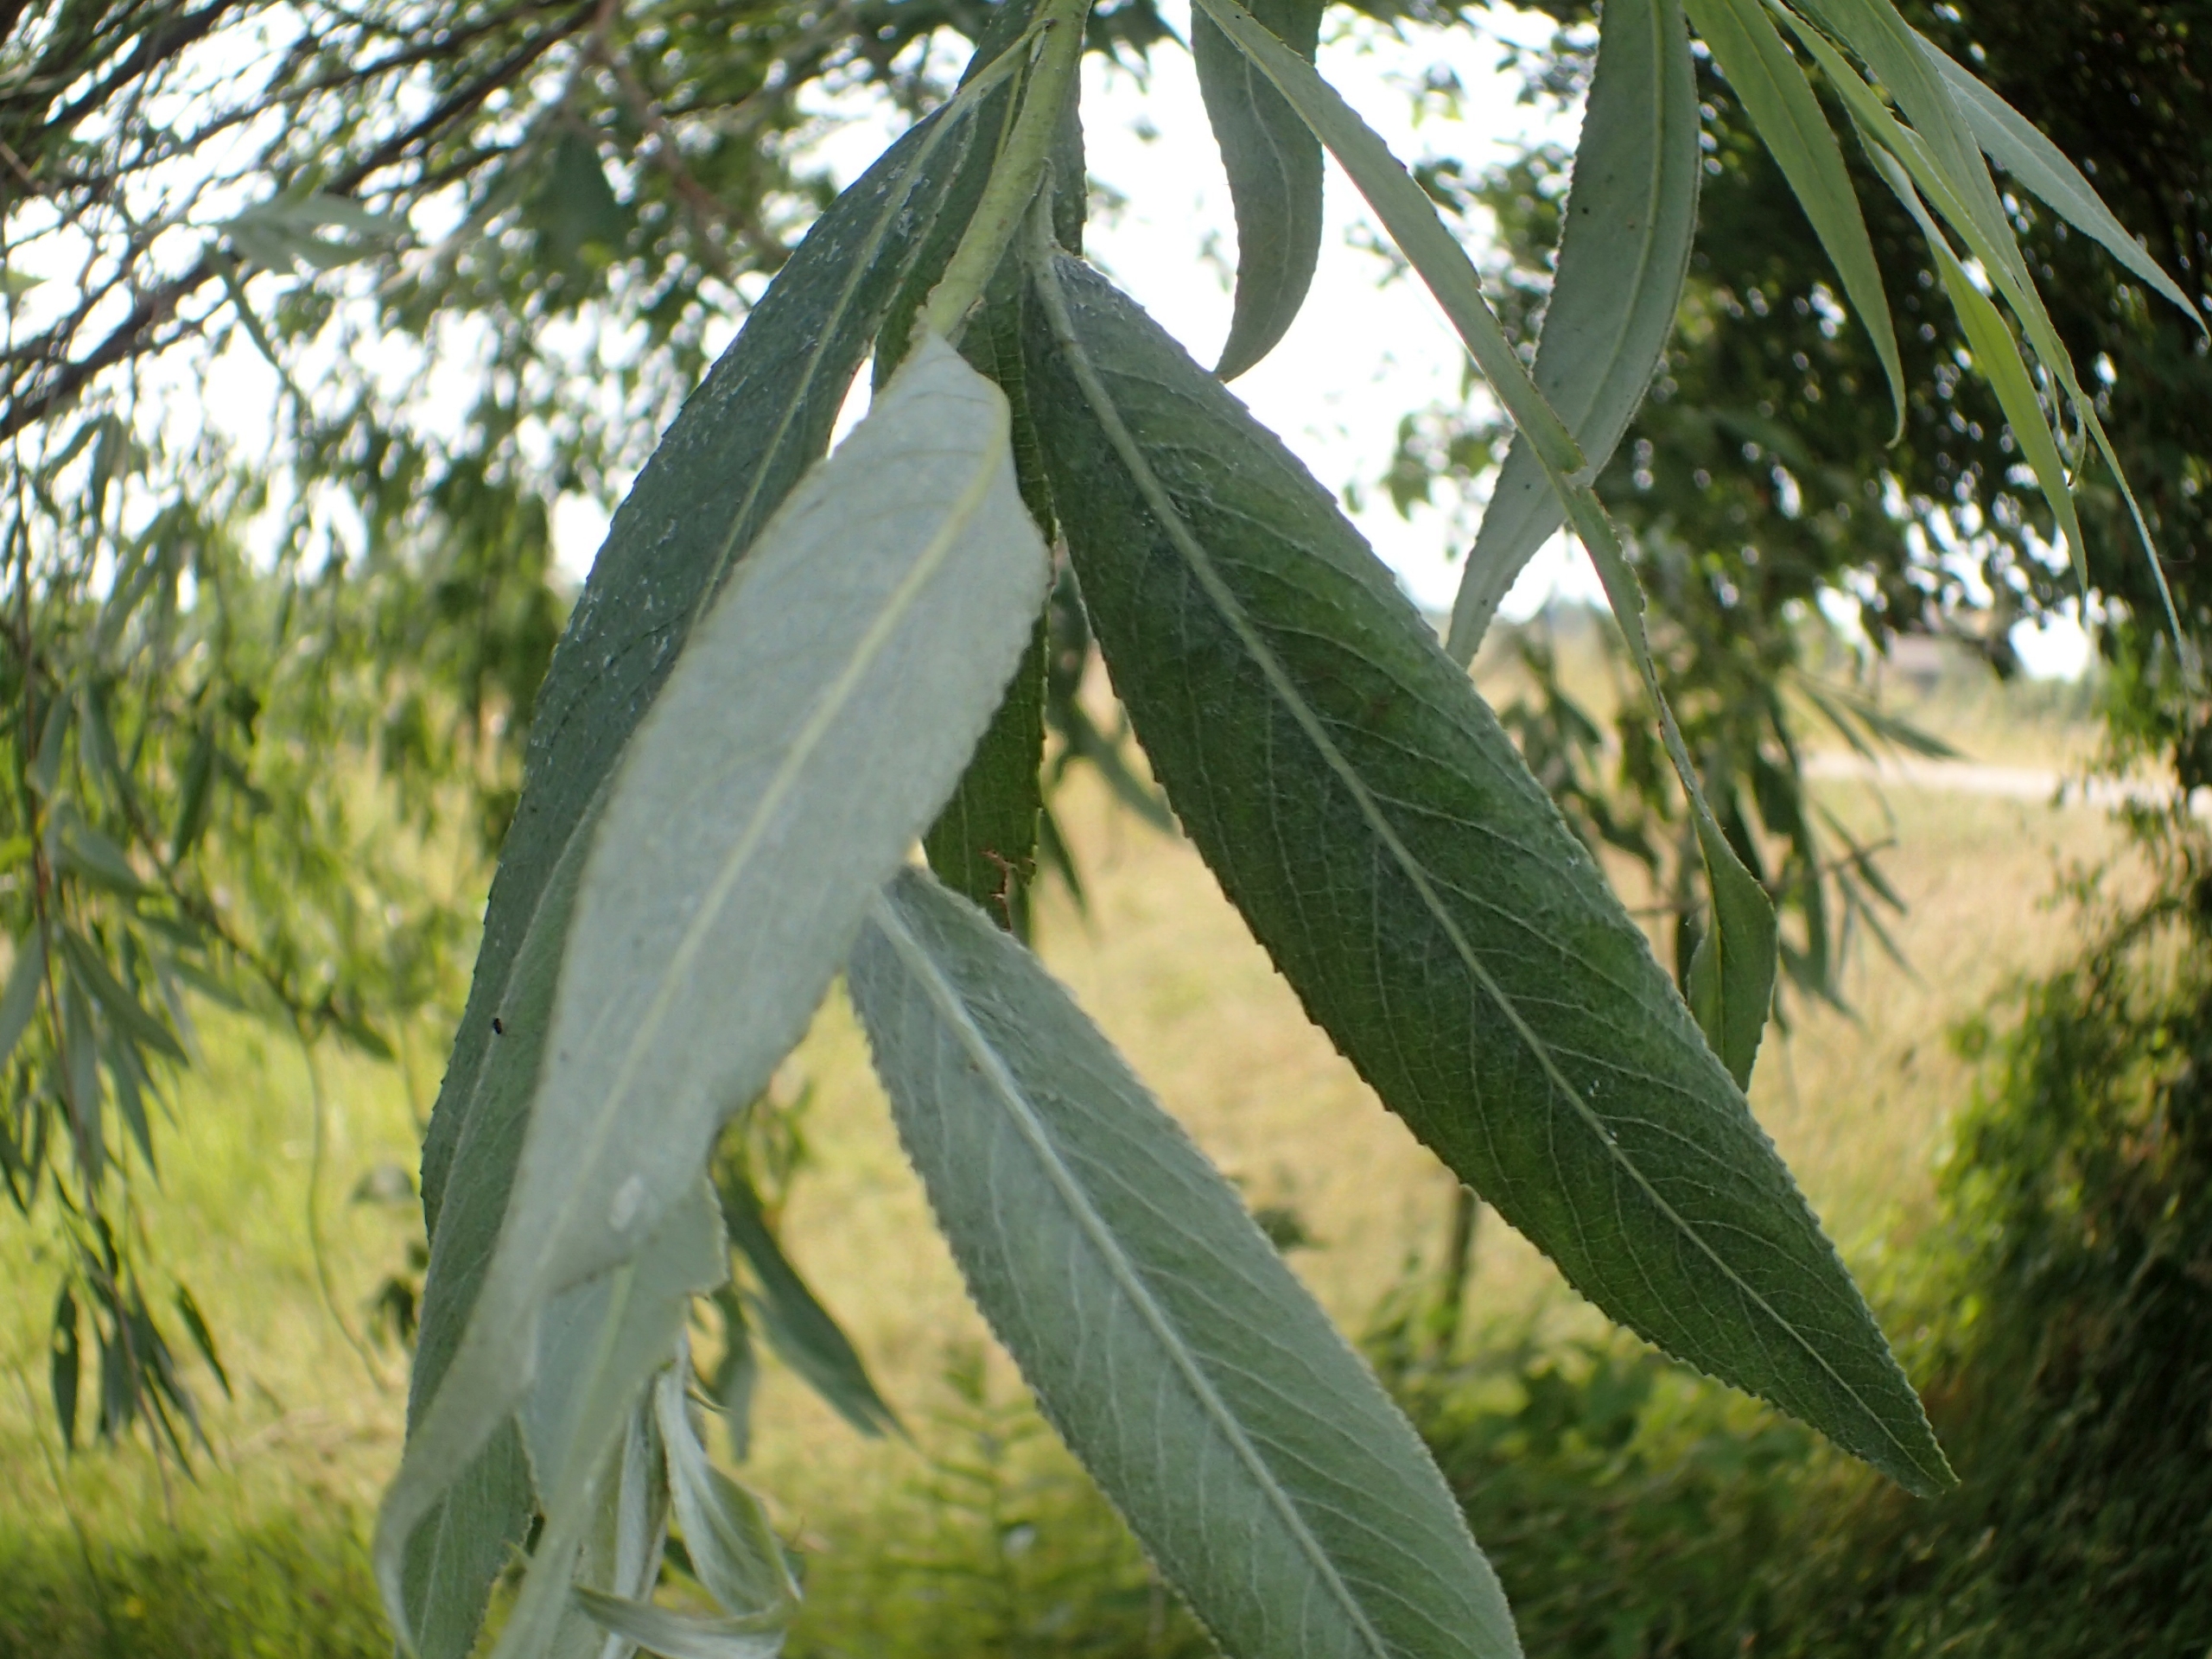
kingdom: Plantae
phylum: Tracheophyta
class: Magnoliopsida
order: Malpighiales
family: Salicaceae
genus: Salix
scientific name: Salix alba
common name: Sølv-pil
